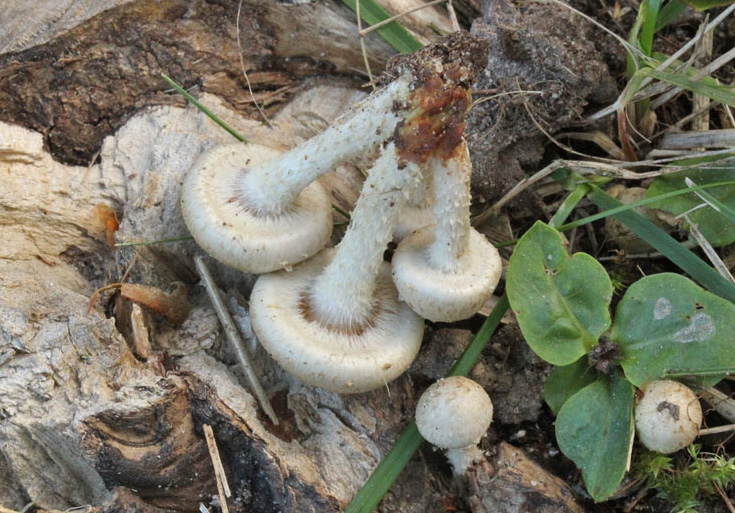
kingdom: Fungi
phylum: Basidiomycota
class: Agaricomycetes
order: Agaricales
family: Strophariaceae
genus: Pholiota
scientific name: Pholiota gummosa
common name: grøngul skælhat
